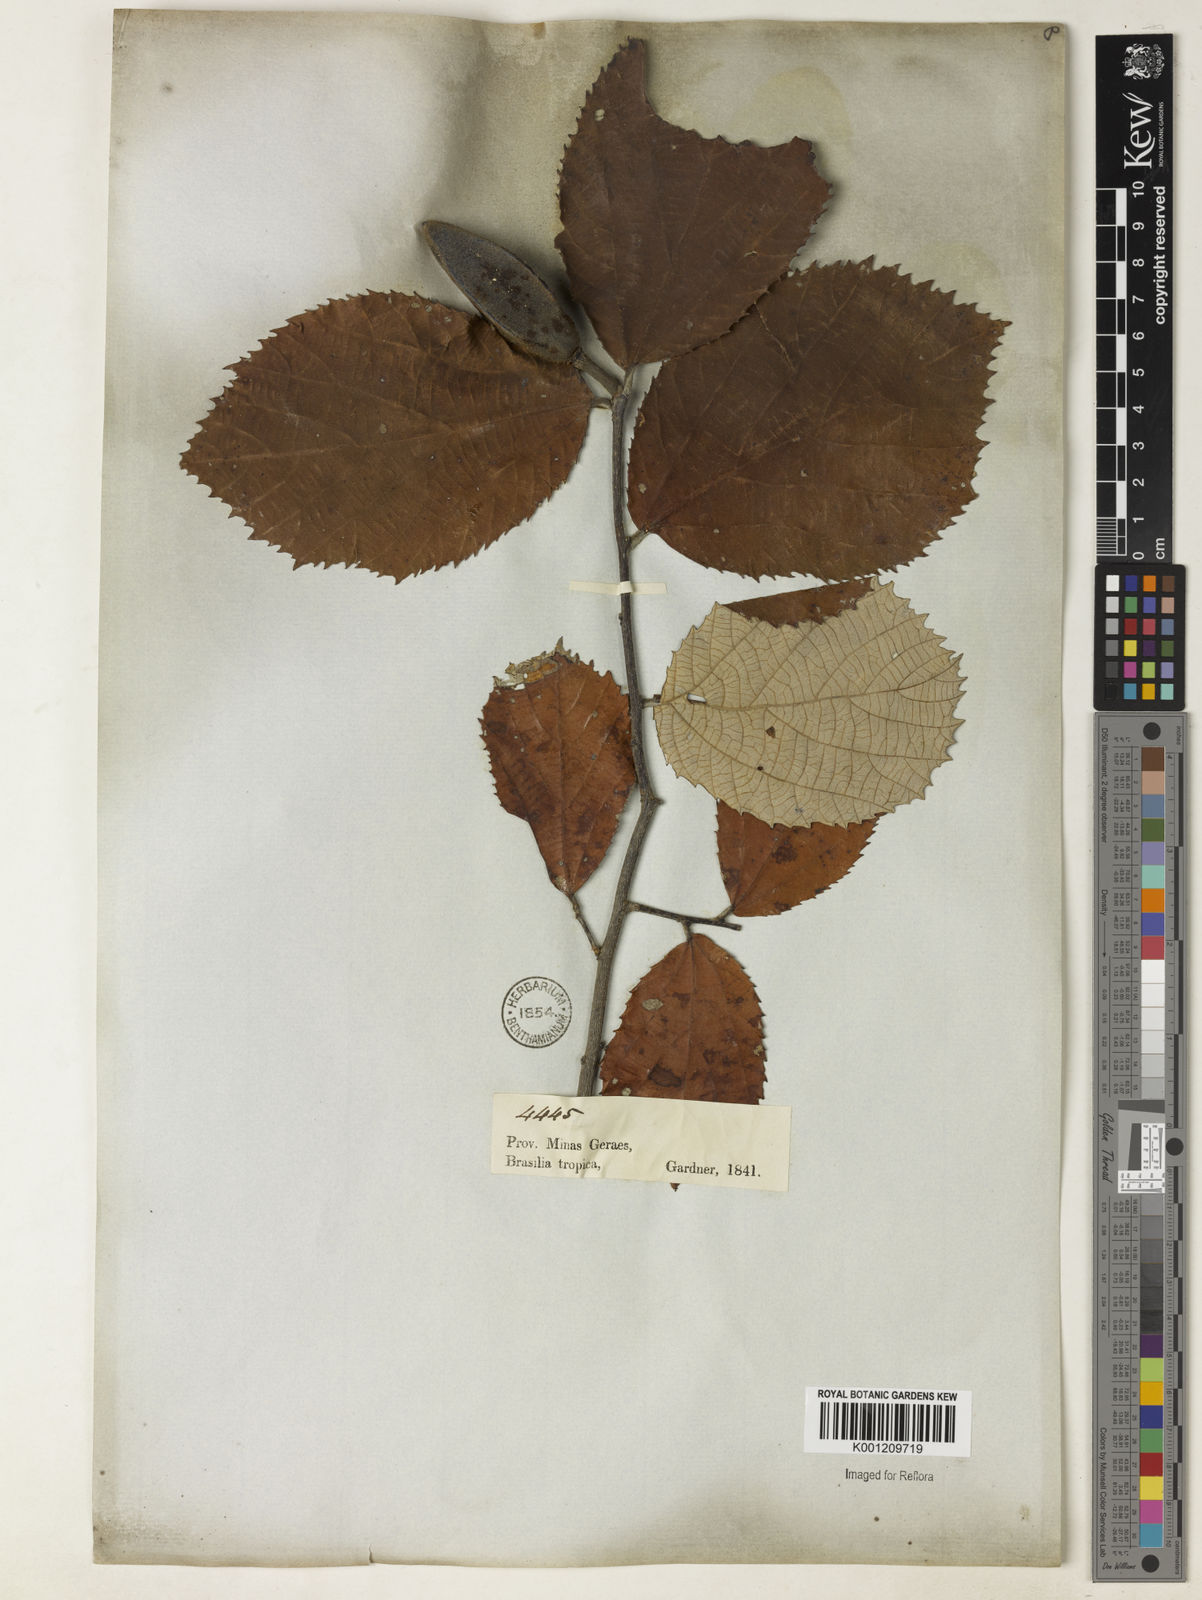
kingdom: Plantae
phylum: Tracheophyta
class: Magnoliopsida
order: Malvales
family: Malvaceae
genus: Luehea
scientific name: Luehea candicans
